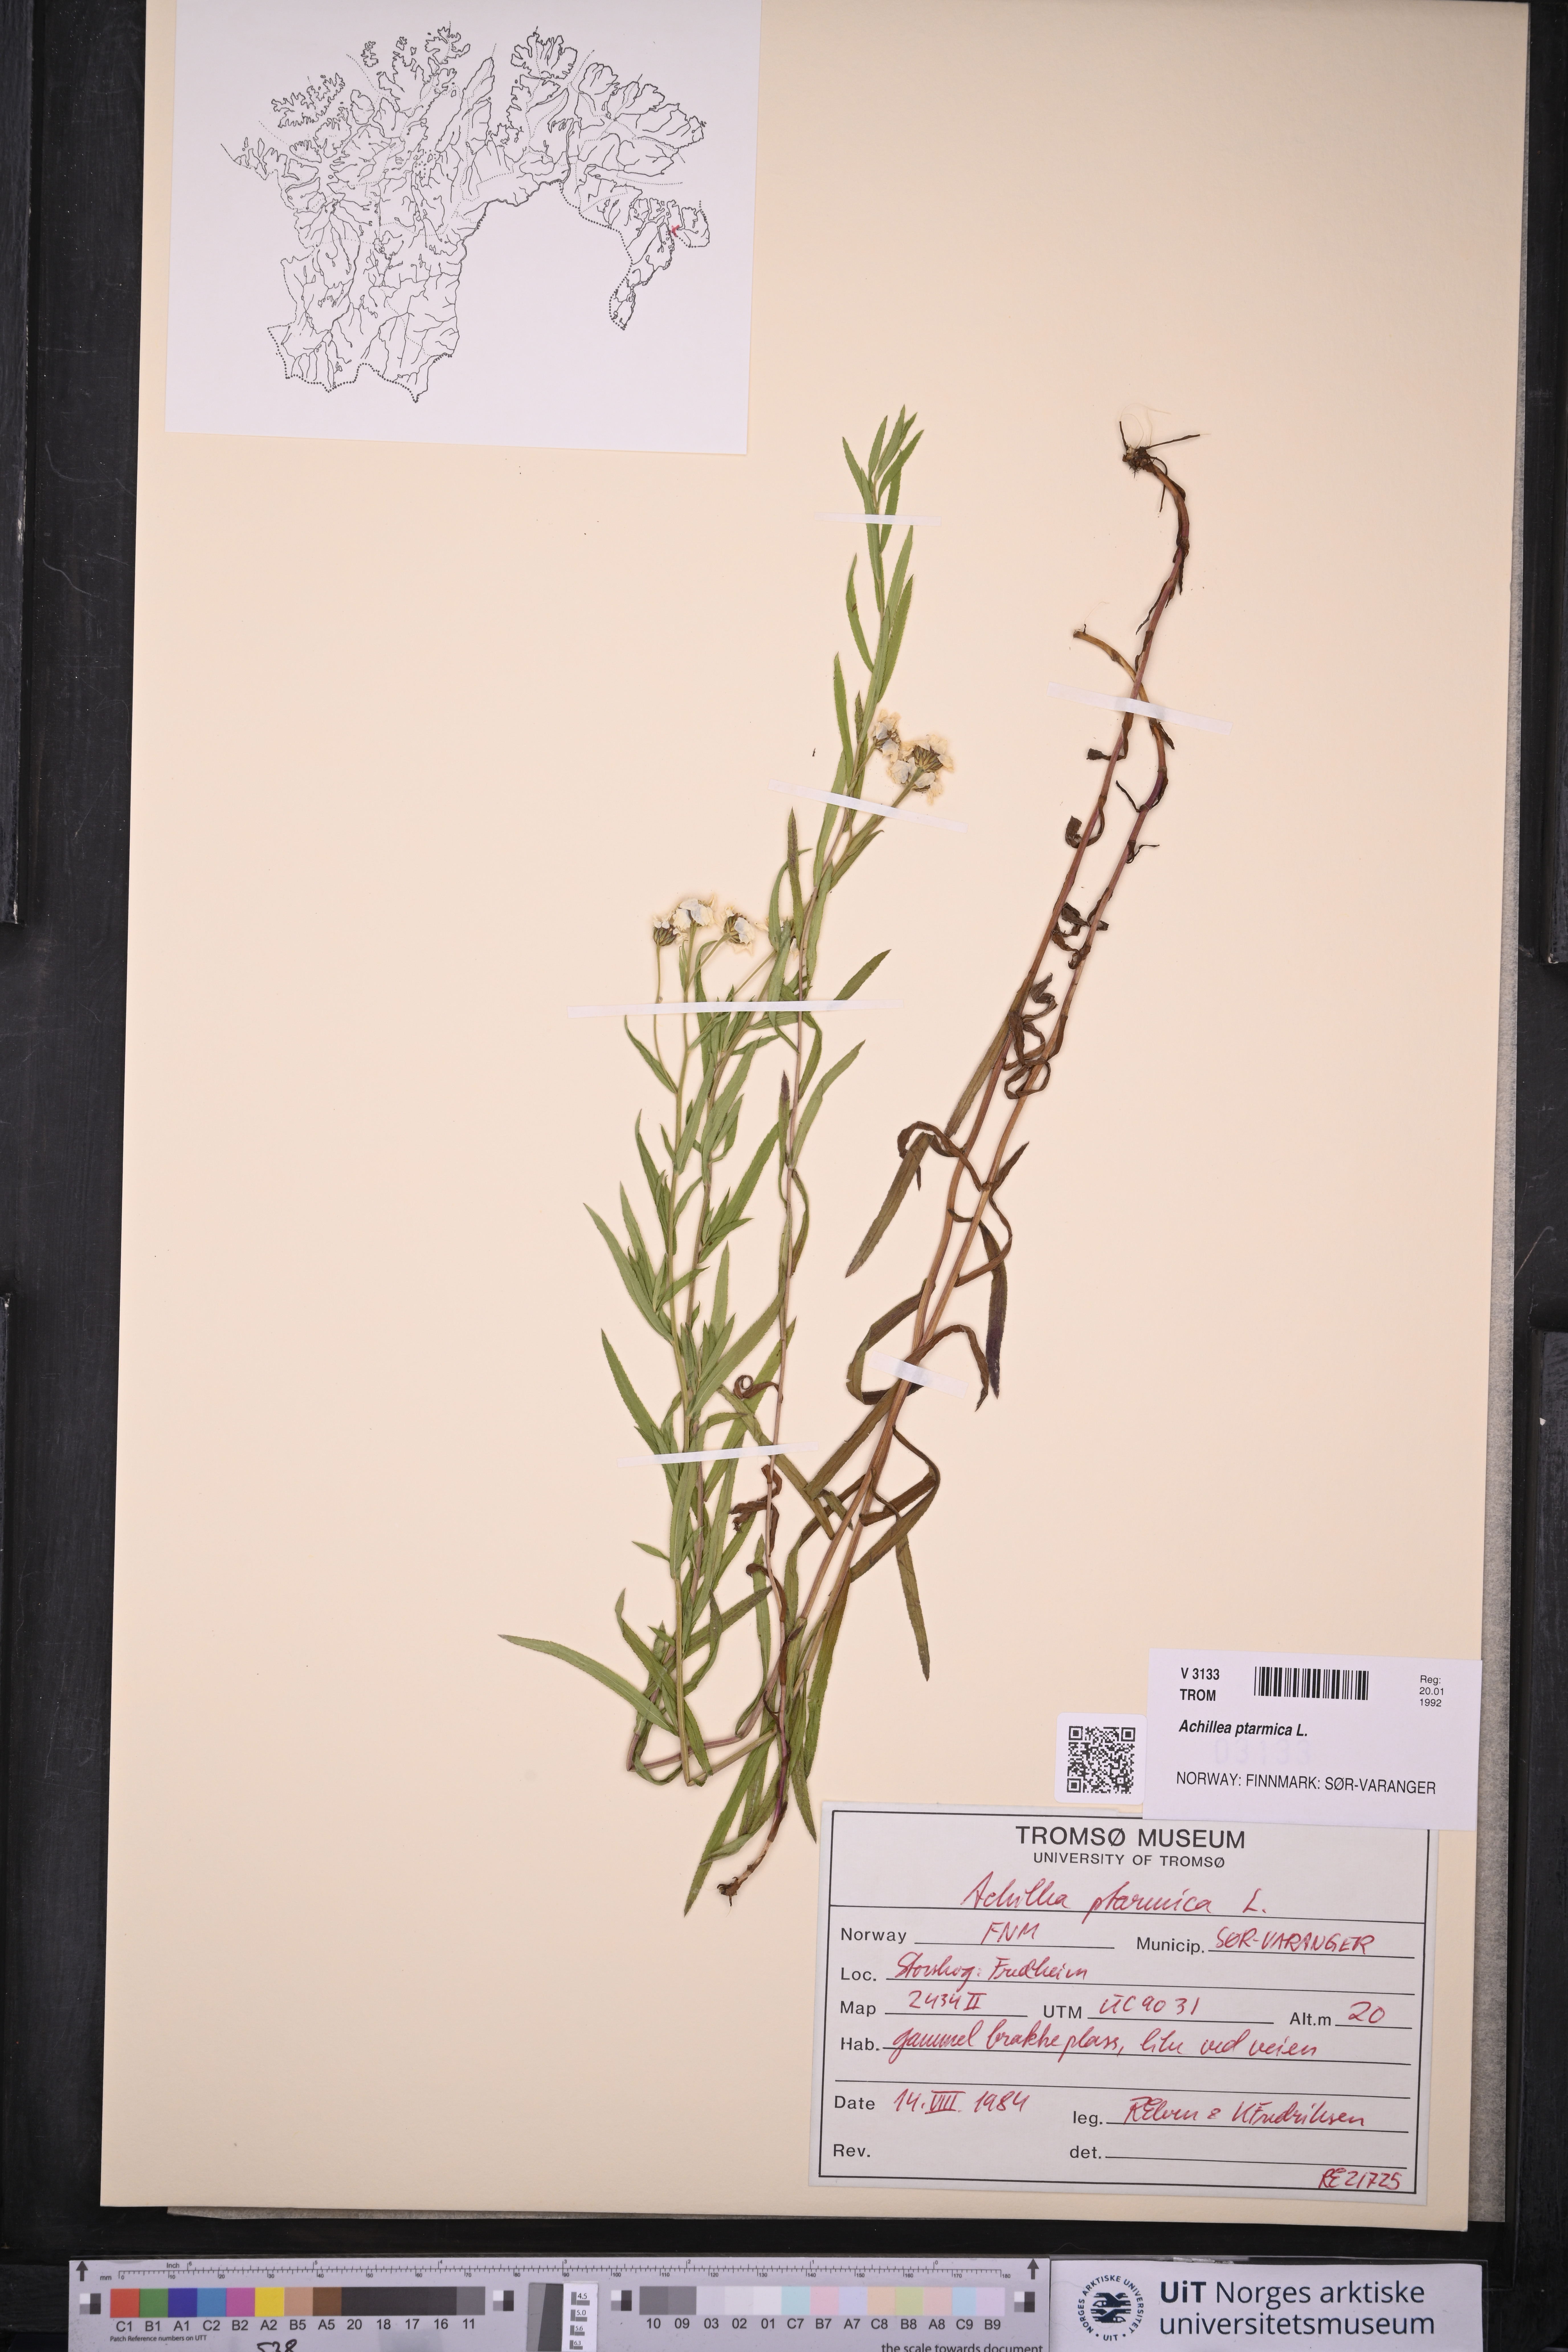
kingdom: Plantae
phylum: Tracheophyta
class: Magnoliopsida
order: Asterales
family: Asteraceae
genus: Achillea
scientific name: Achillea ptarmica
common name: Sneezeweed
